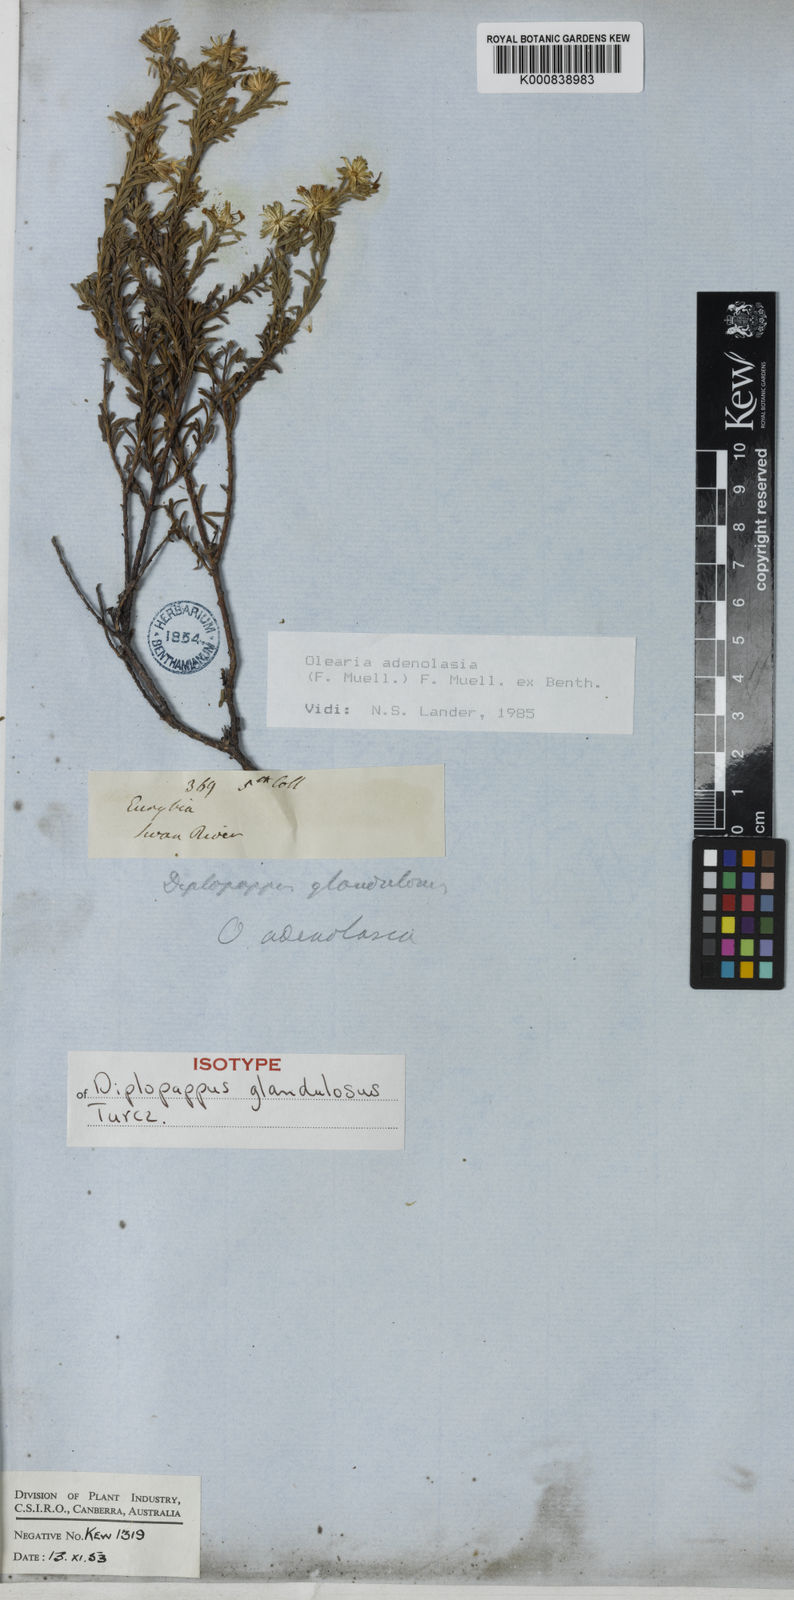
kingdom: Plantae
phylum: Tracheophyta
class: Magnoliopsida
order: Asterales
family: Asteraceae
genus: Olearia
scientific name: Olearia adenolasia
